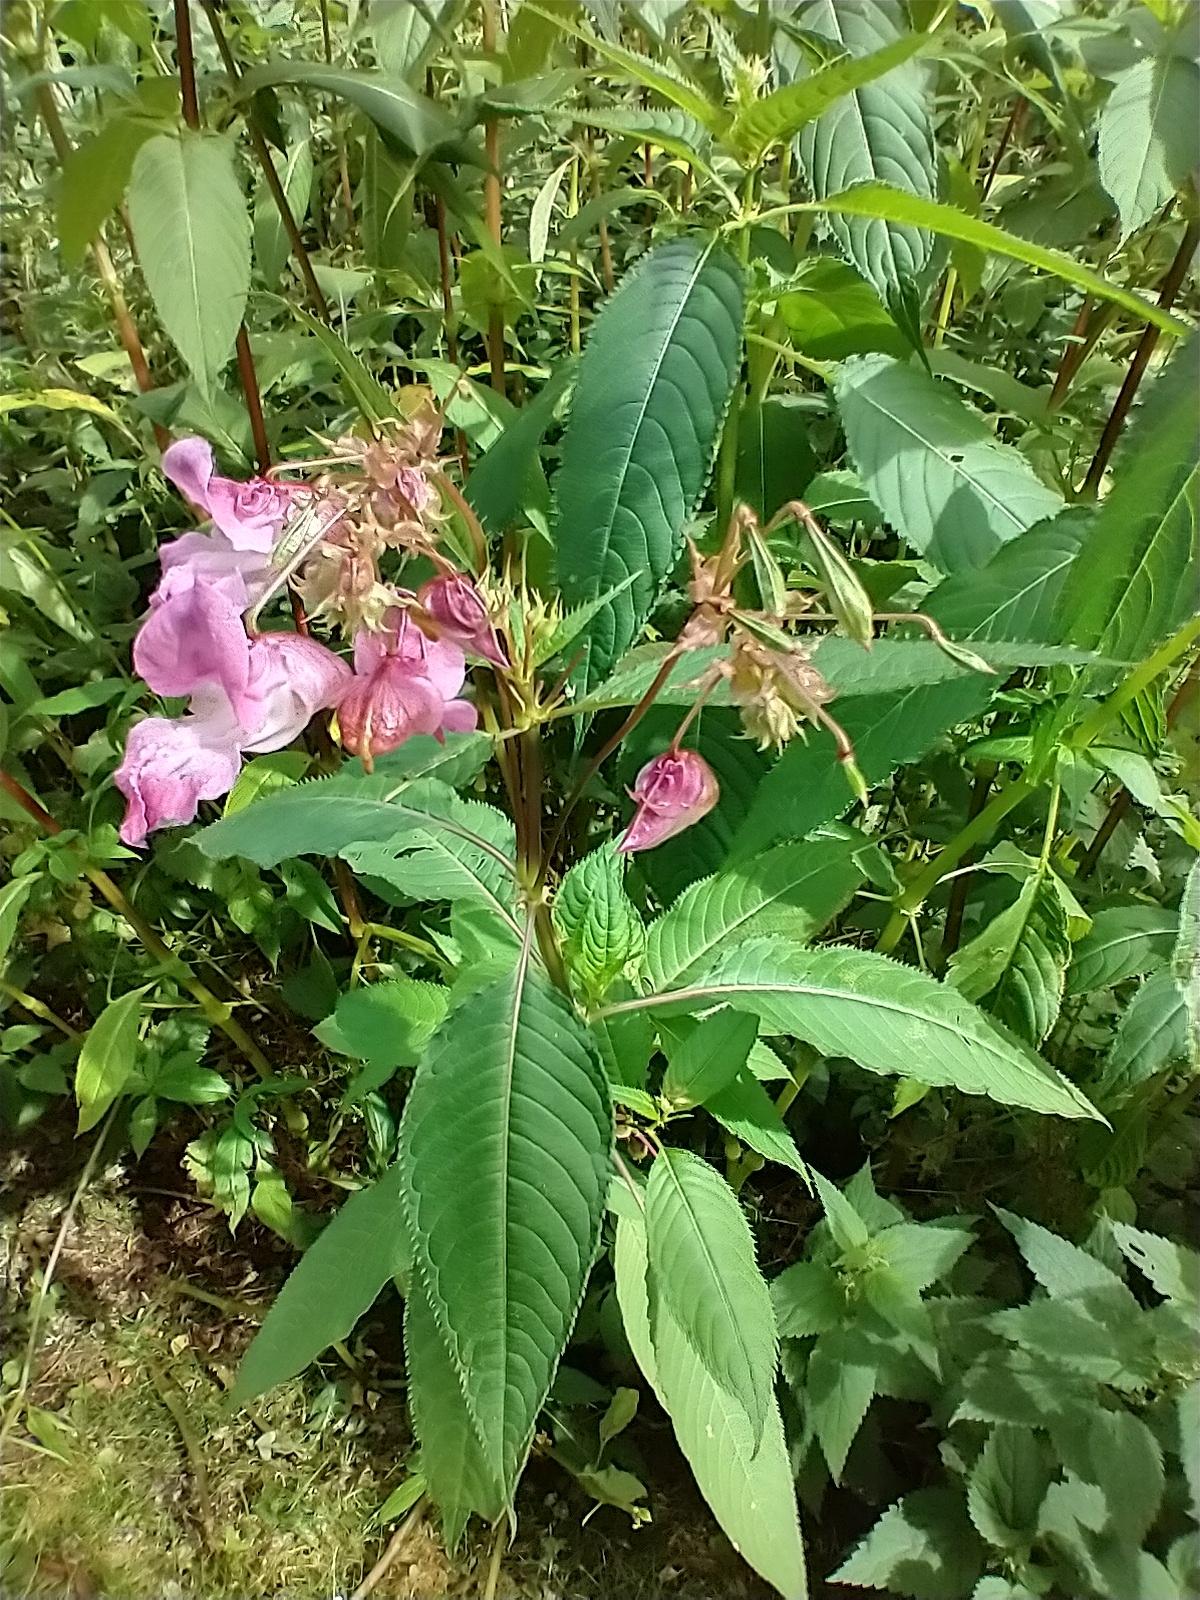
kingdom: Plantae
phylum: Tracheophyta
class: Magnoliopsida
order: Ericales
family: Balsaminaceae
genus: Impatiens
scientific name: Impatiens glandulifera
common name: Kæmpe-balsamin
